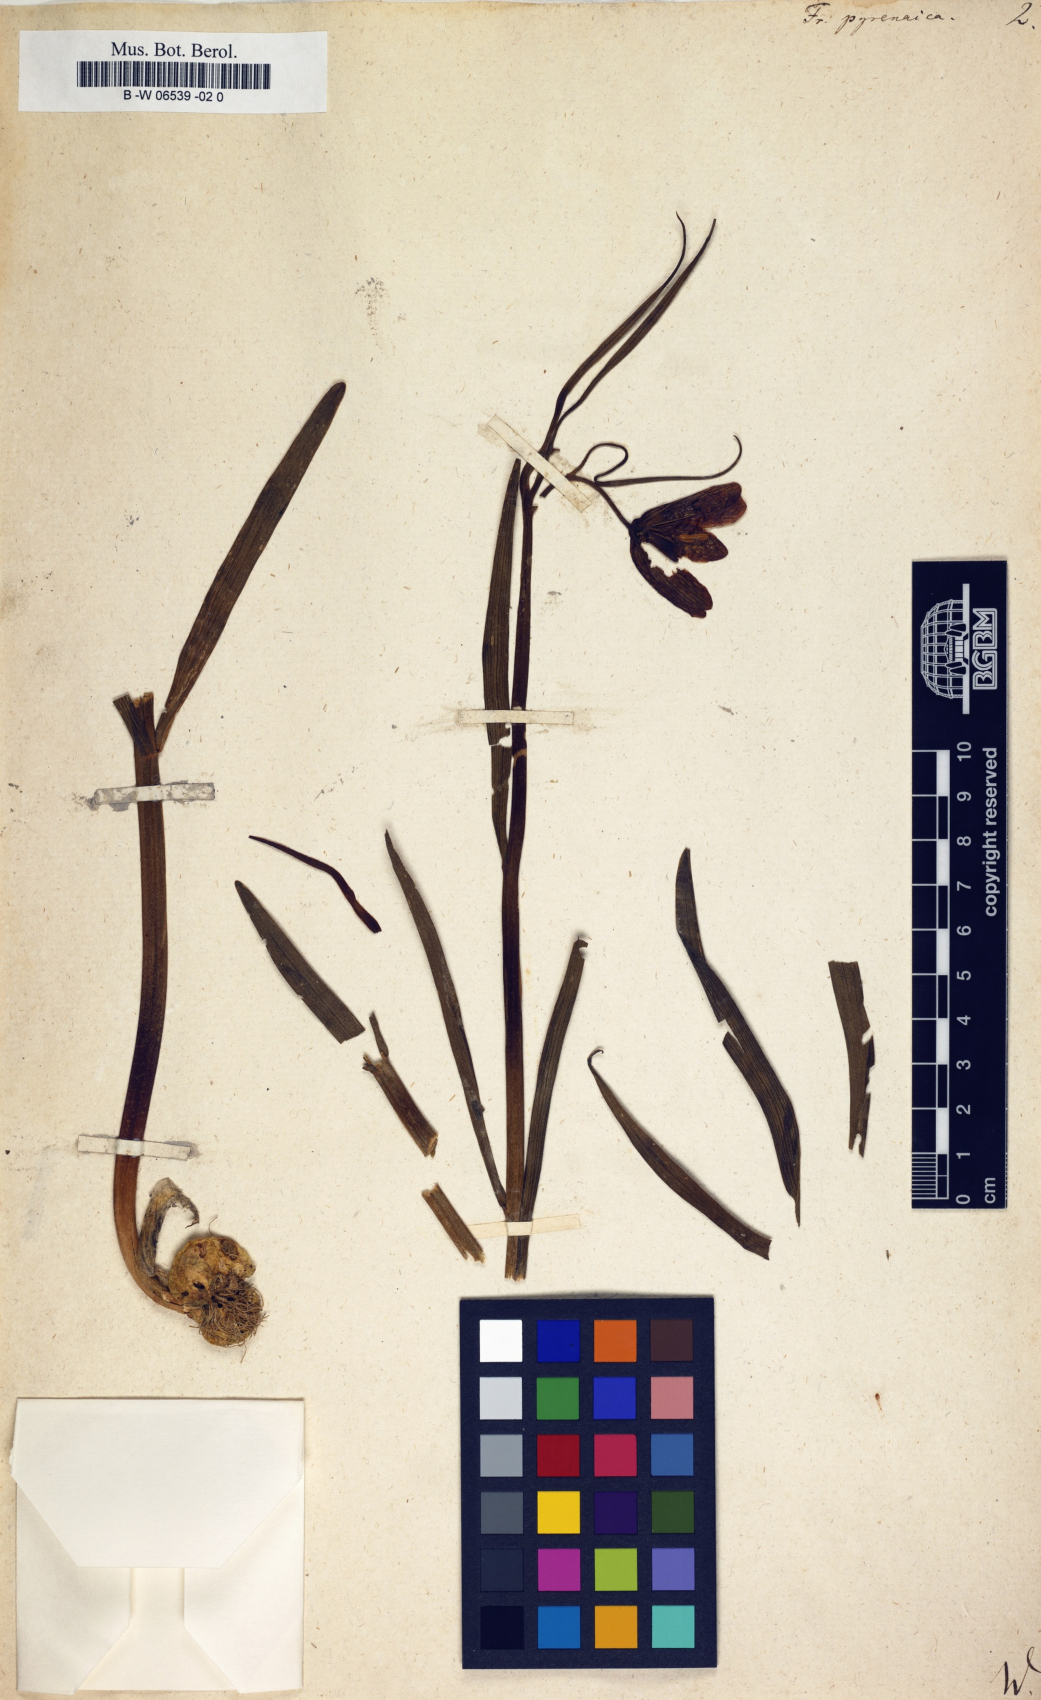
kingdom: Plantae
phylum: Tracheophyta
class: Liliopsida
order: Liliales
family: Liliaceae
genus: Fritillaria
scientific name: Fritillaria pyrenaica
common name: Pyrenean snake's-head
